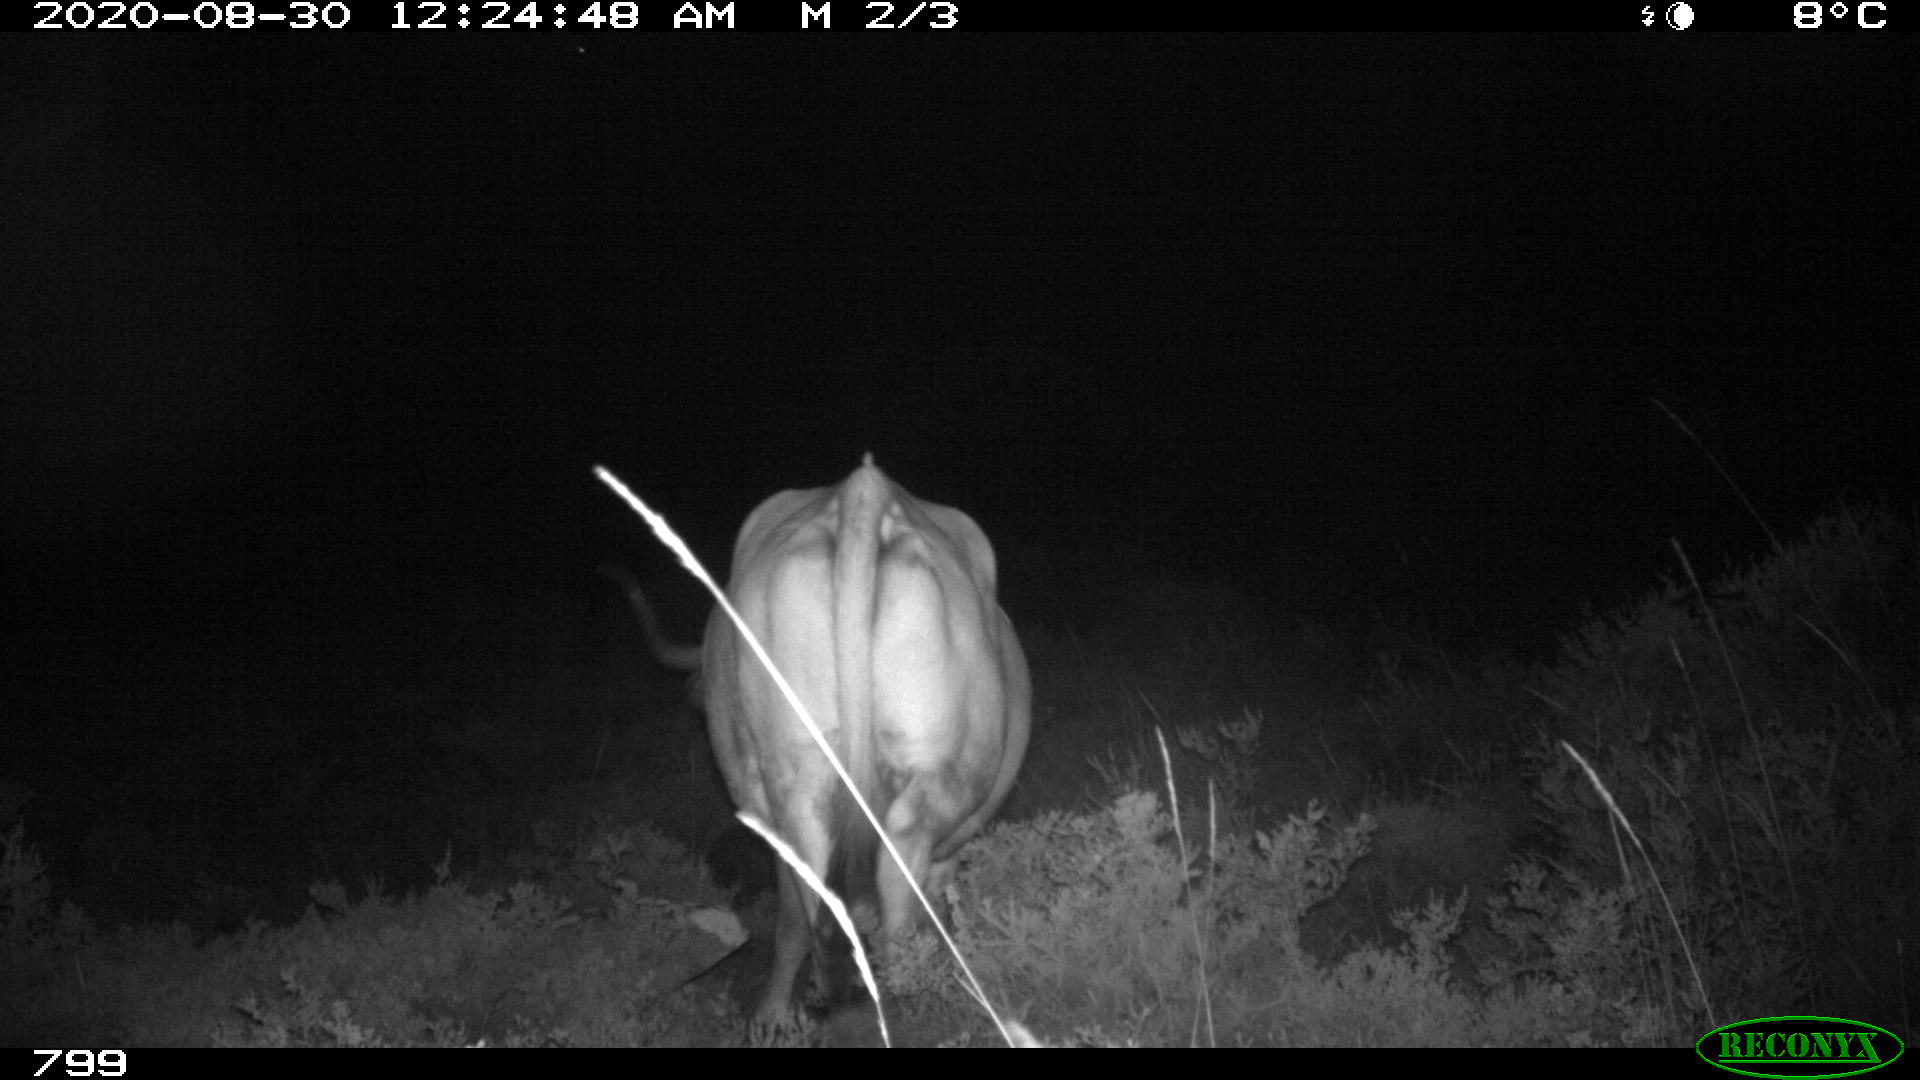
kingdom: Animalia
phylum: Chordata
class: Mammalia
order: Artiodactyla
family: Bovidae
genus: Bos
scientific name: Bos taurus
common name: Domesticated cattle
